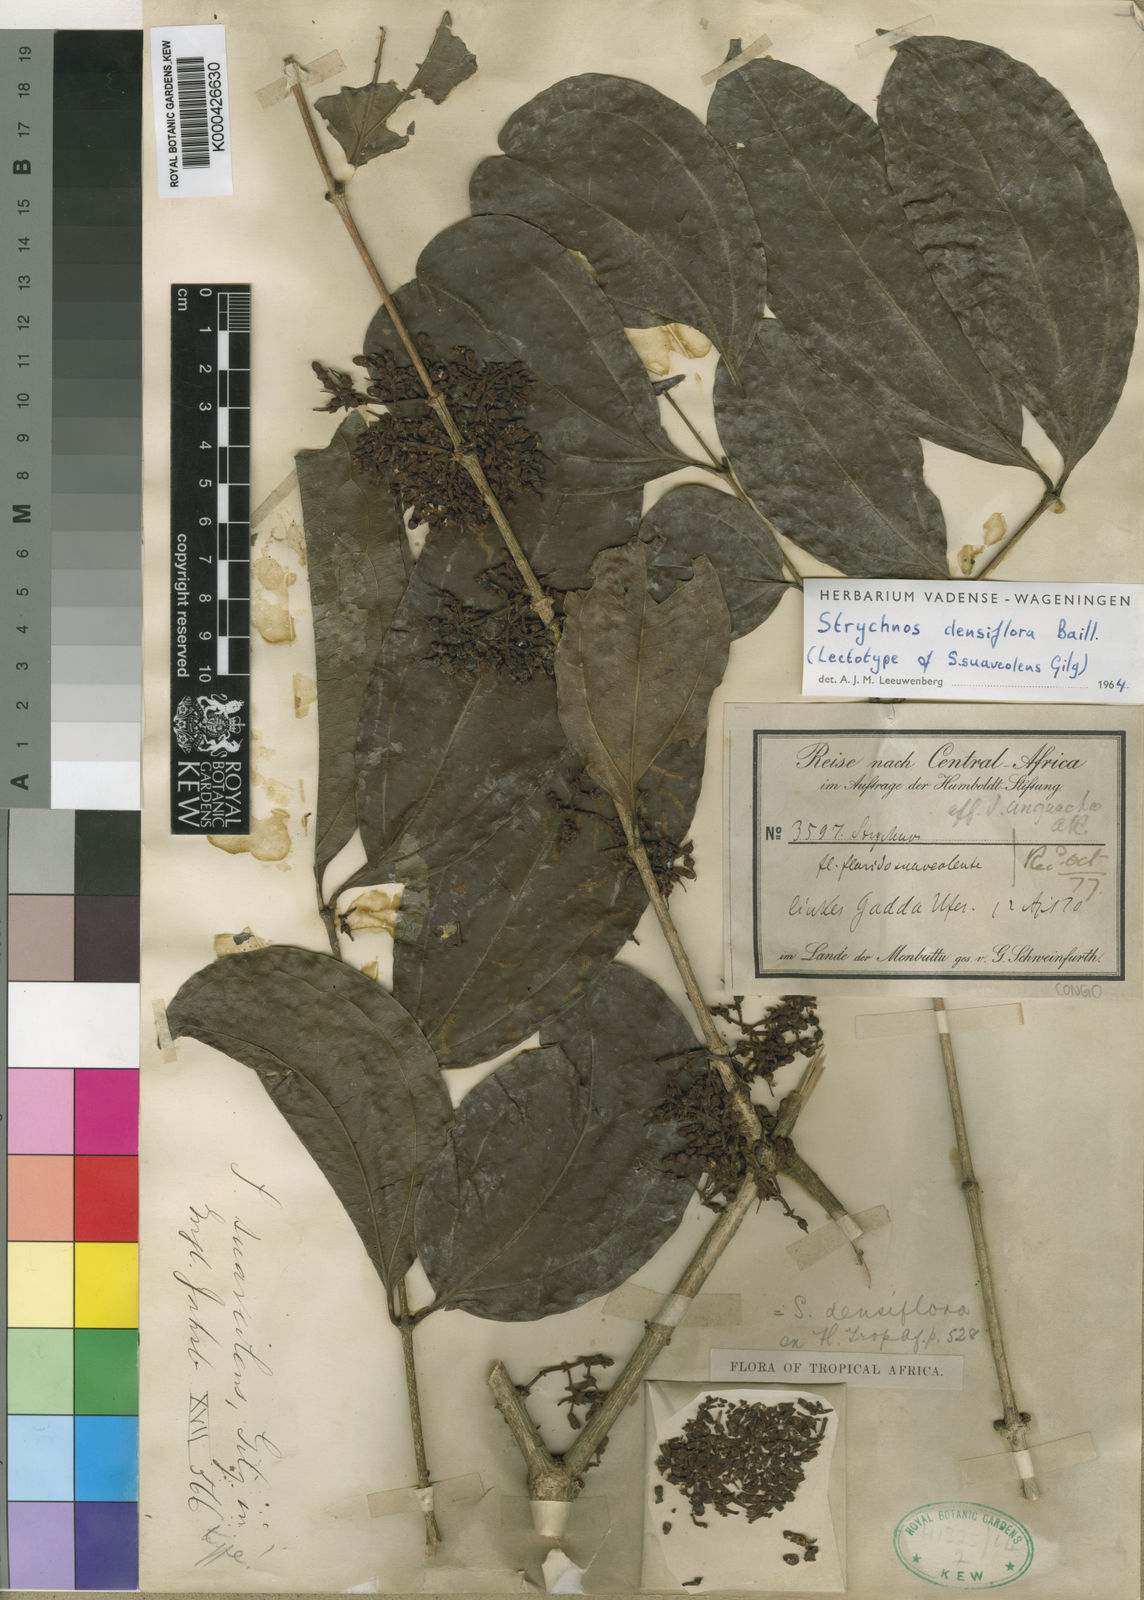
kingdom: Plantae
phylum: Tracheophyta
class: Magnoliopsida
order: Gentianales
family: Loganiaceae
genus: Strychnos
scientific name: Strychnos densiflora
